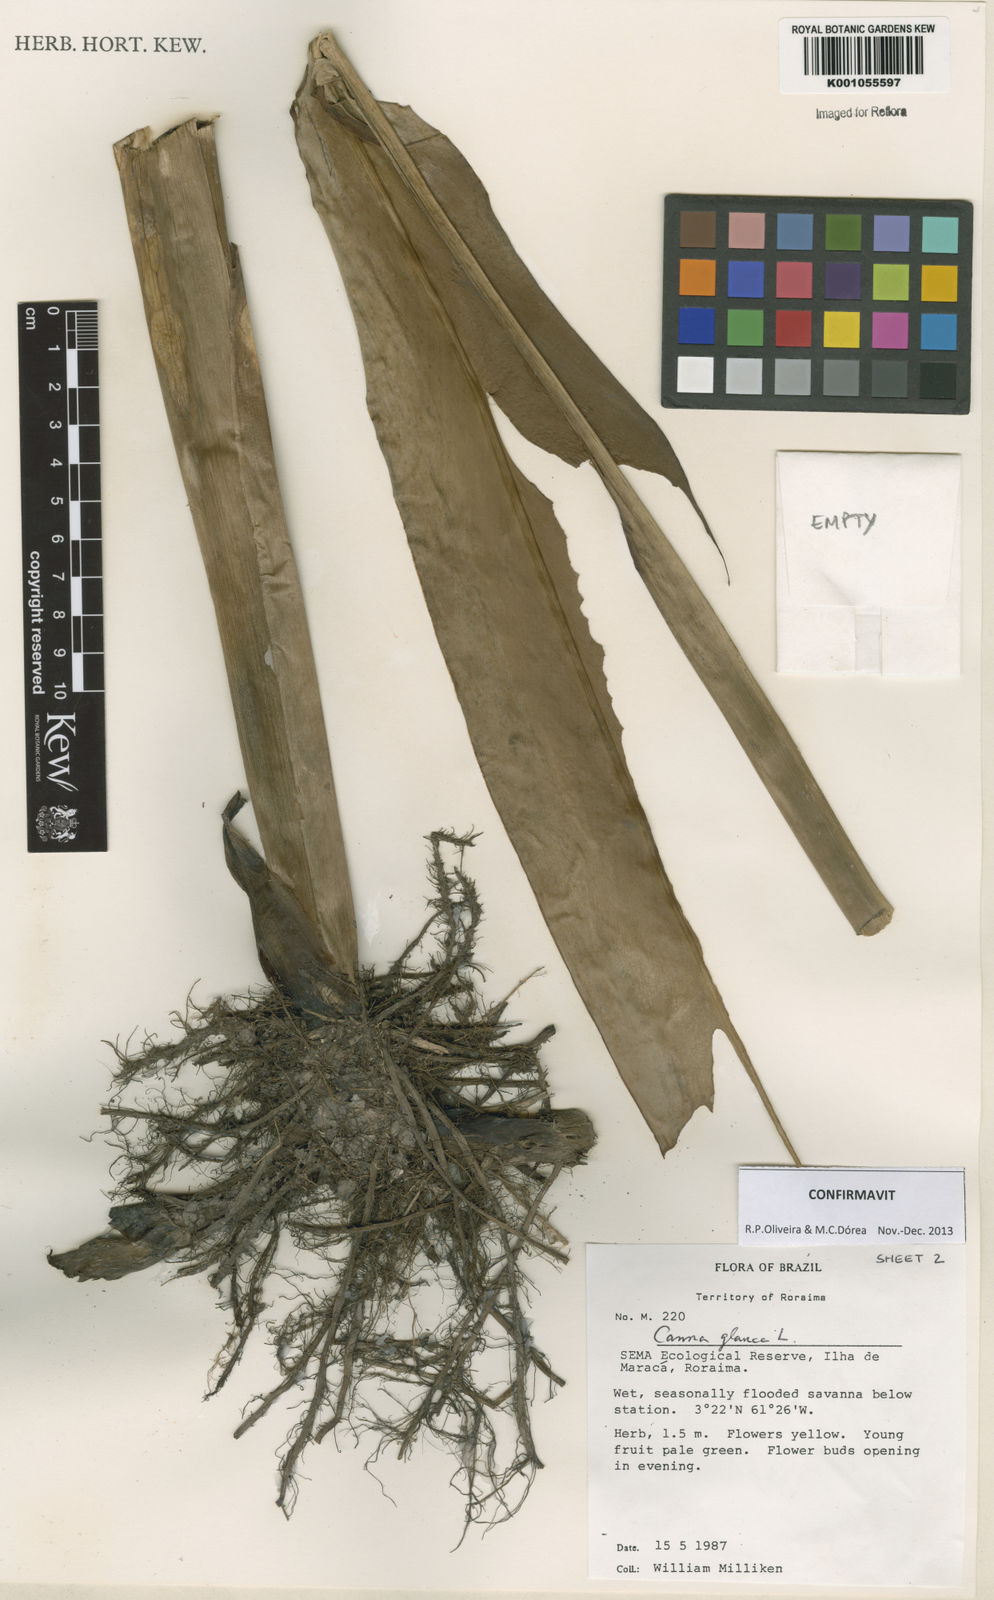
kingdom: Plantae
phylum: Tracheophyta
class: Liliopsida
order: Zingiberales
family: Cannaceae
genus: Canna
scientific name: Canna glauca
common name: Louisiana canna
